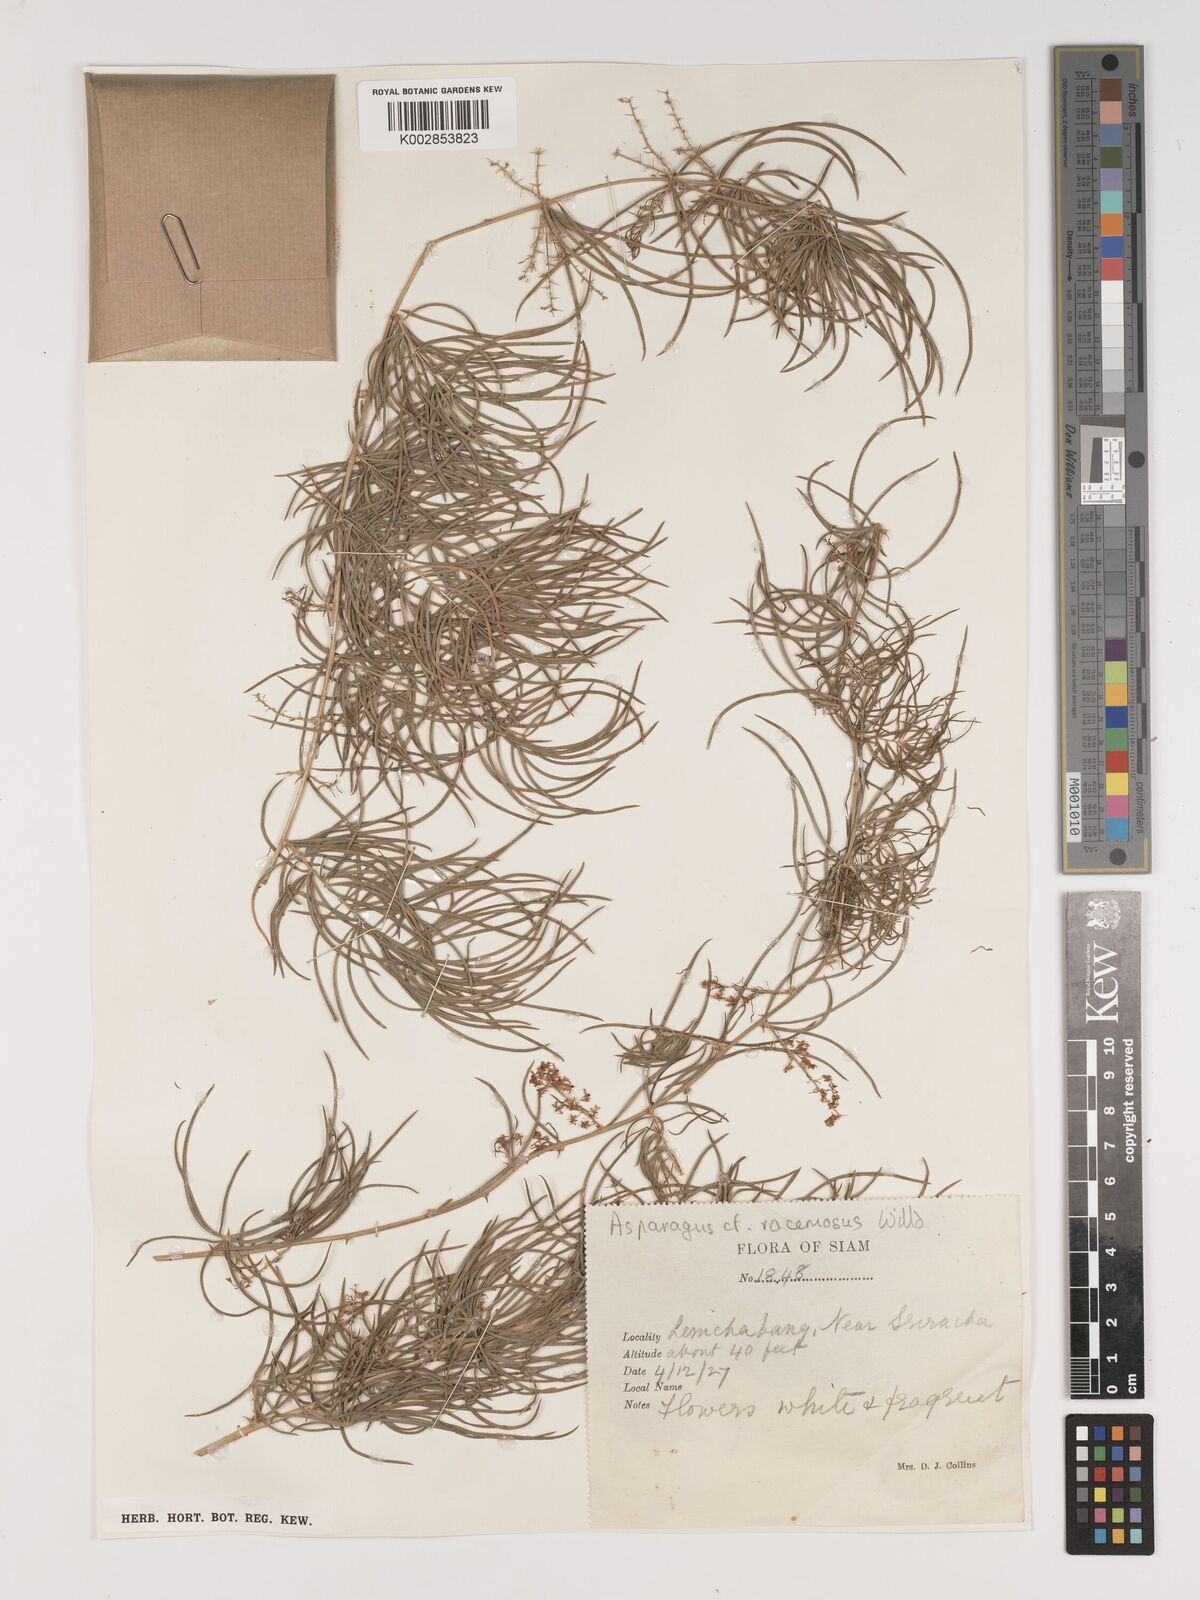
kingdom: Plantae
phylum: Tracheophyta
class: Liliopsida
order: Asparagales
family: Asparagaceae
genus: Asparagus
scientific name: Asparagus
